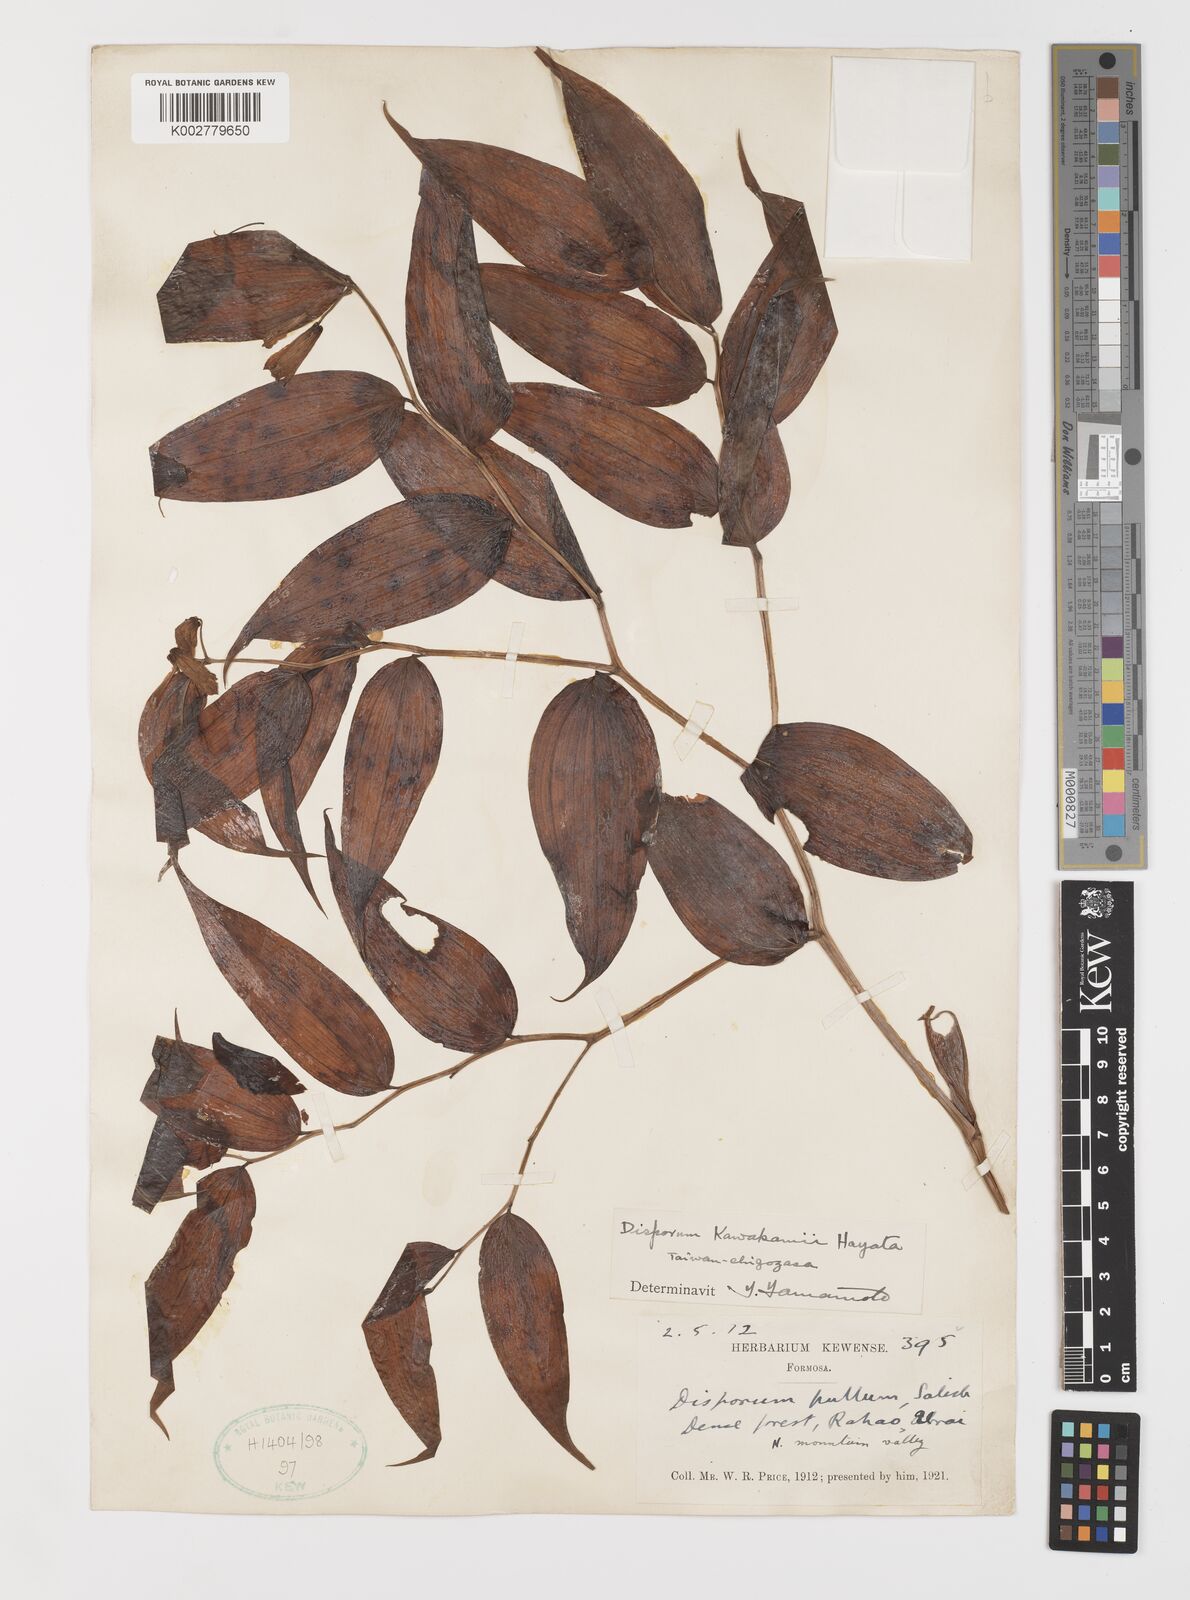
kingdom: Plantae
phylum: Tracheophyta
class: Liliopsida
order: Liliales
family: Colchicaceae
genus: Disporum
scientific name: Disporum kawakamii
